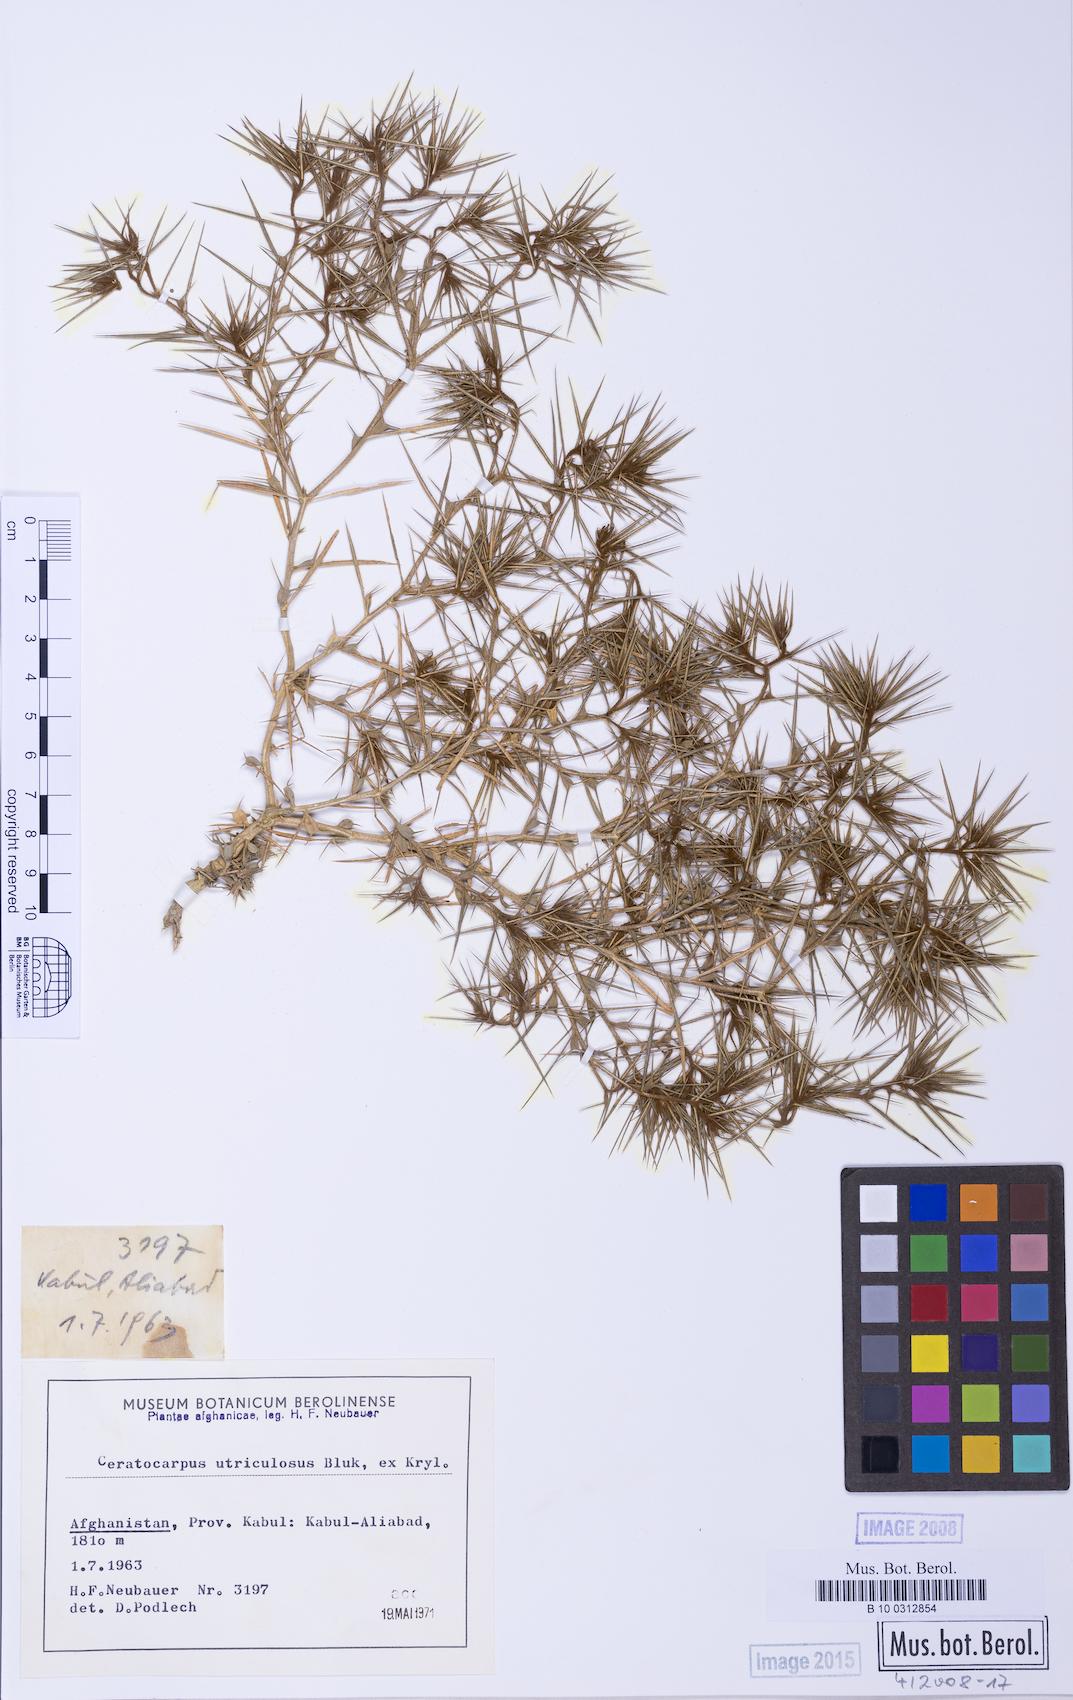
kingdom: Plantae
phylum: Tracheophyta
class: Magnoliopsida
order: Caryophyllales
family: Amaranthaceae
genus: Ceratocarpus
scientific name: Ceratocarpus arenarius
